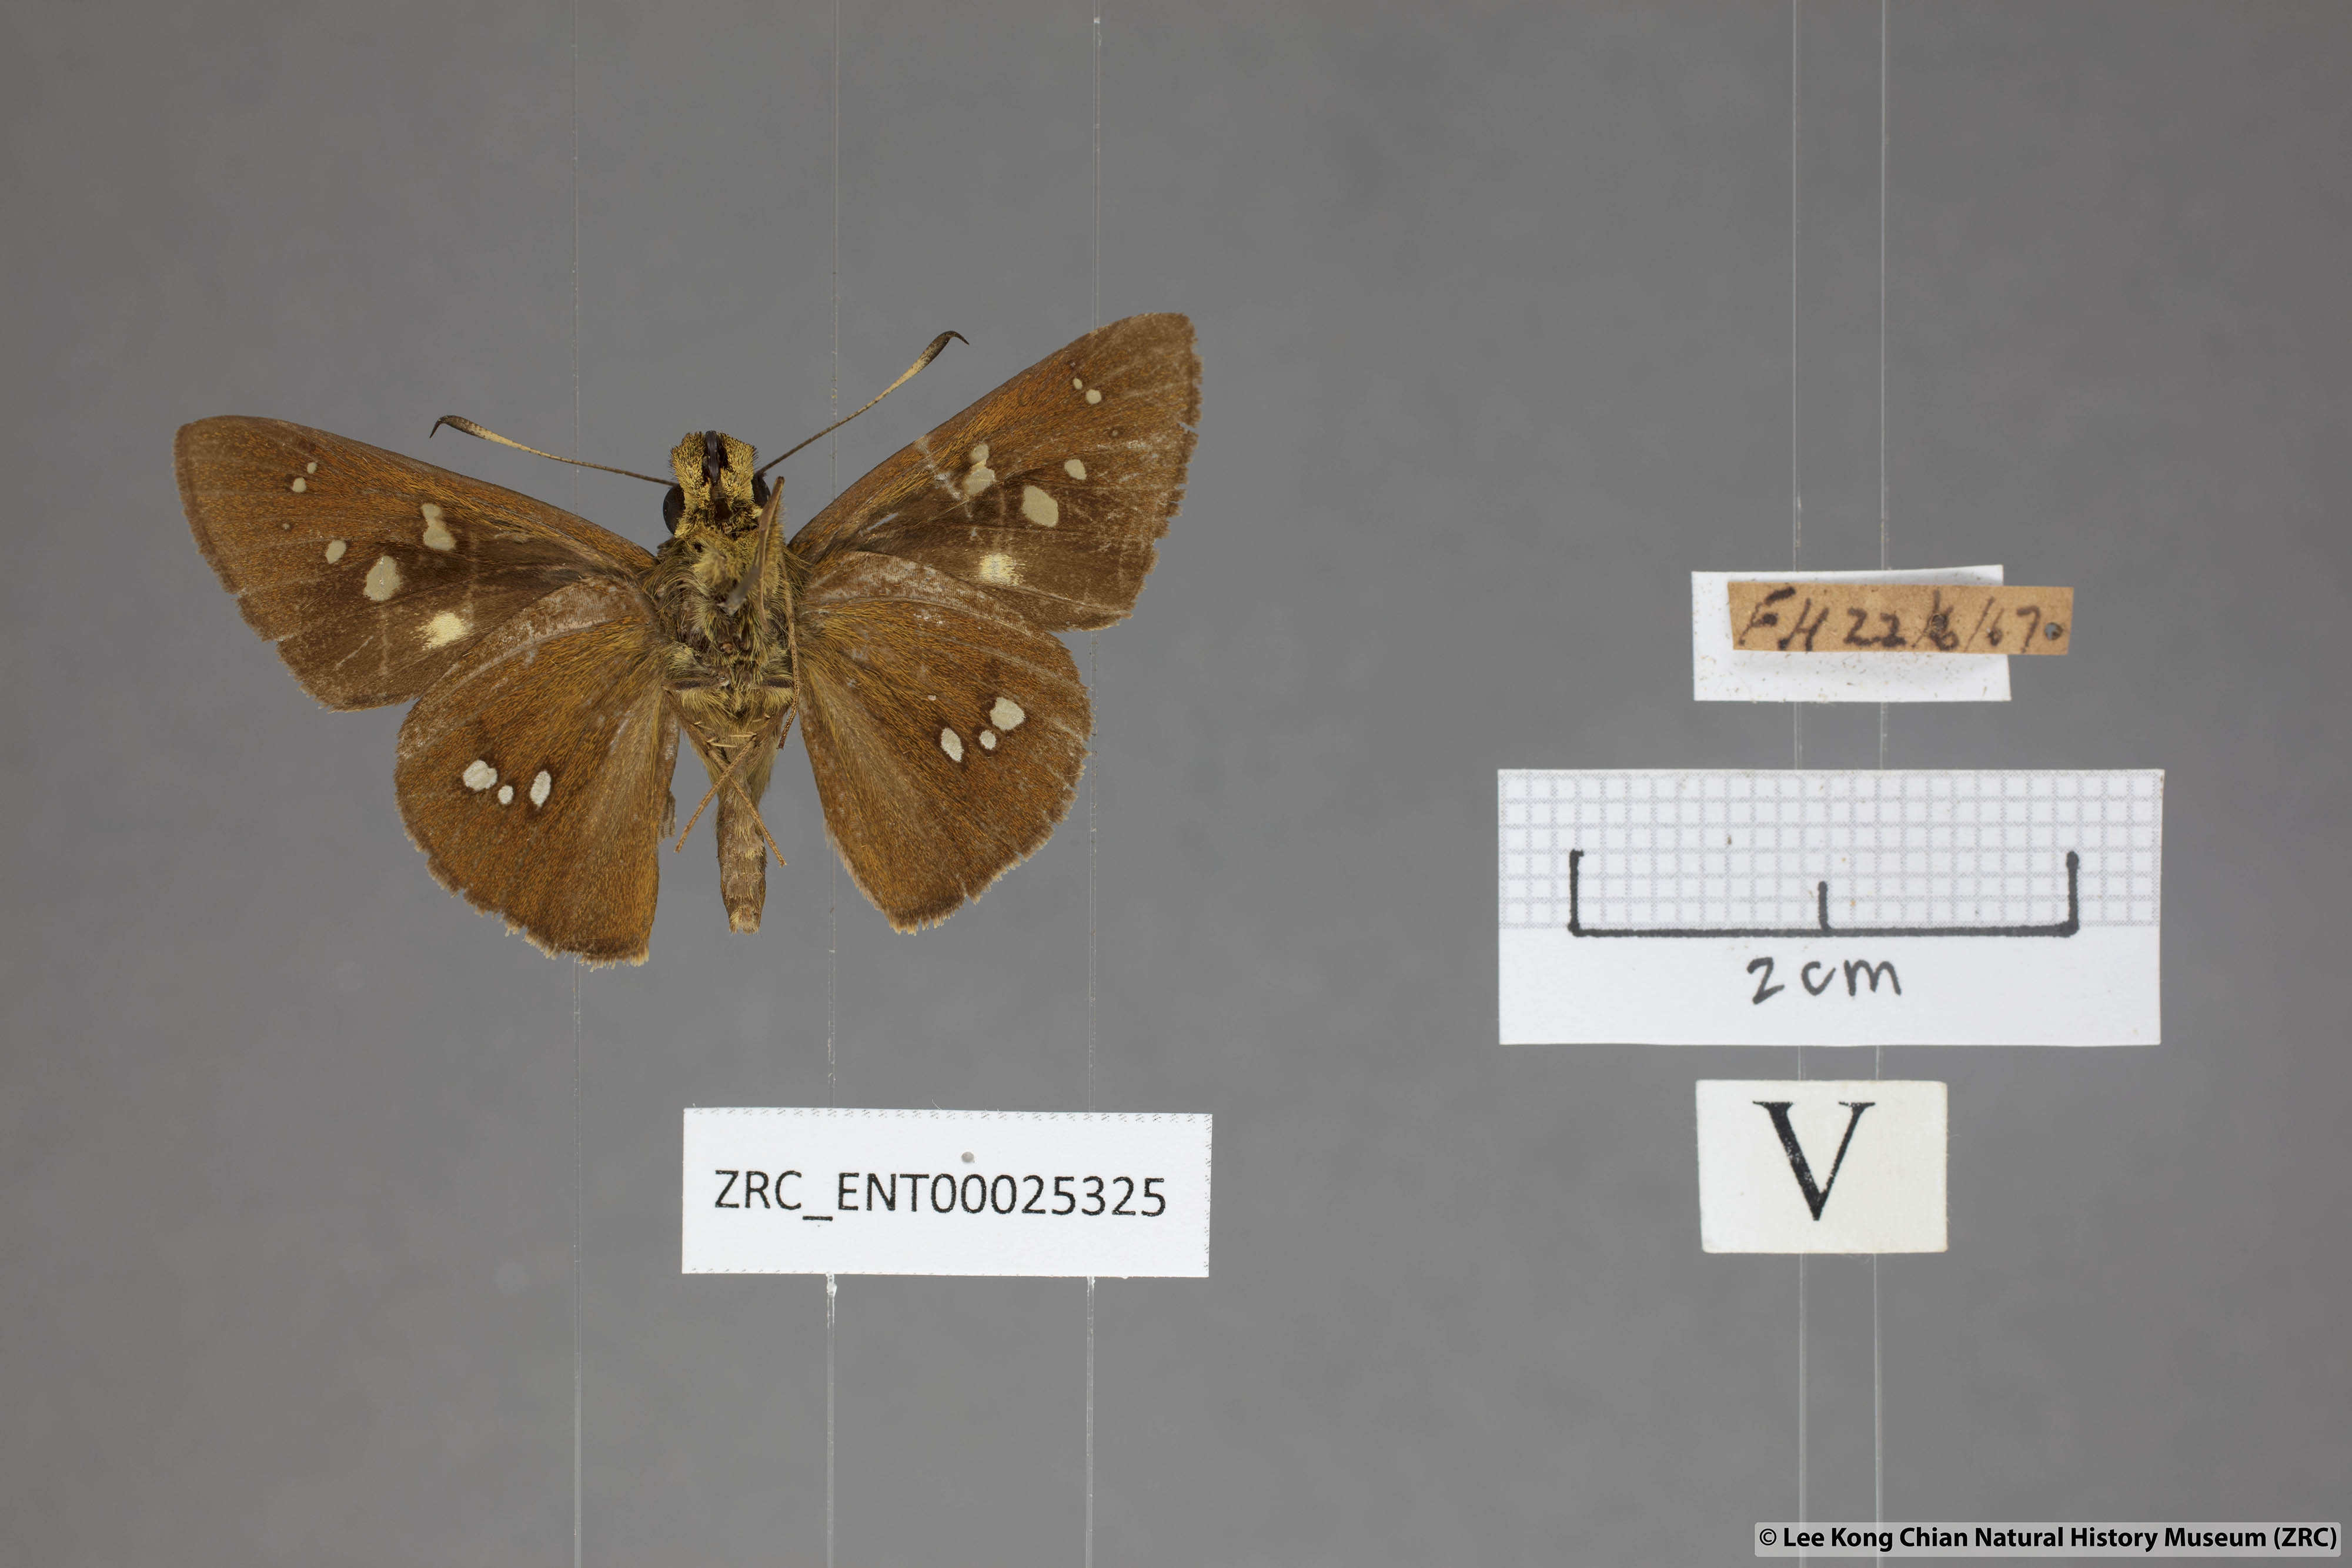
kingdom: Animalia
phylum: Arthropoda
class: Insecta
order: Lepidoptera
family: Hesperiidae
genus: Polytremis
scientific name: Polytremis eltola
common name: Yellow-spot swift
